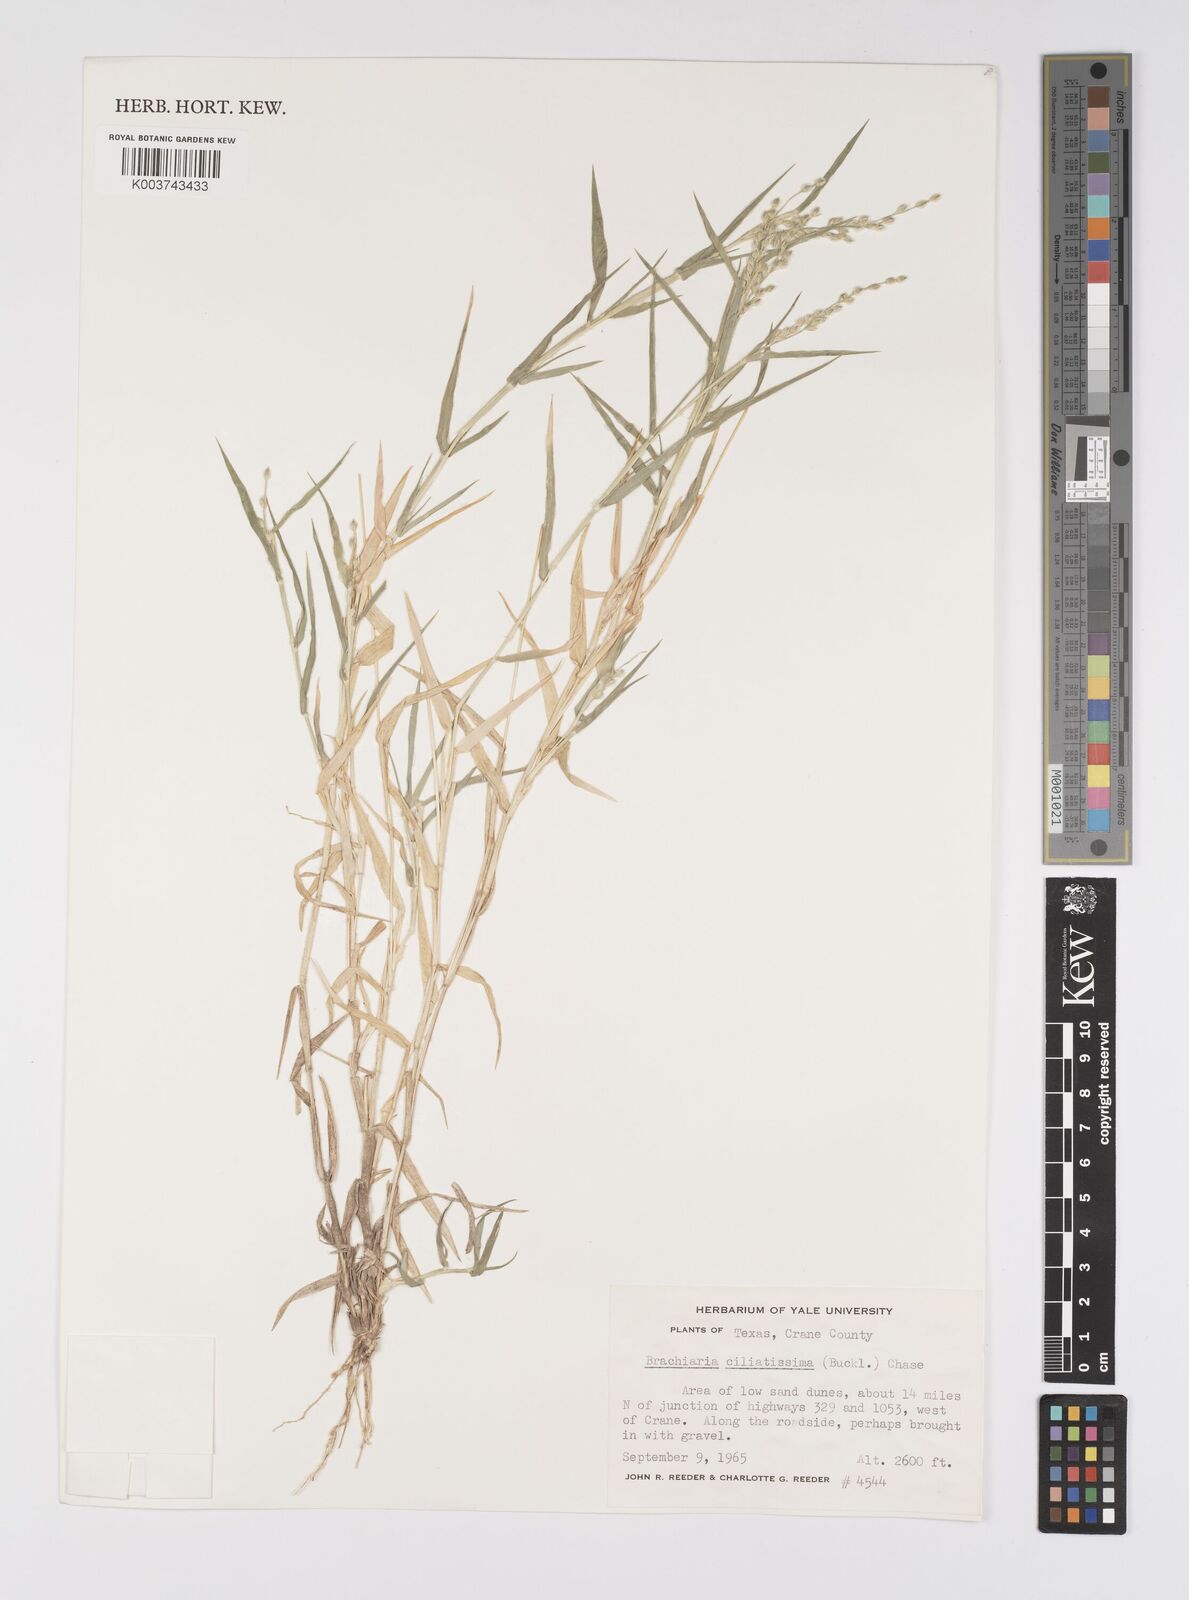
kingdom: Plantae
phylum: Tracheophyta
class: Liliopsida
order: Poales
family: Poaceae
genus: Urochloa
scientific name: Urochloa ciliatissima
